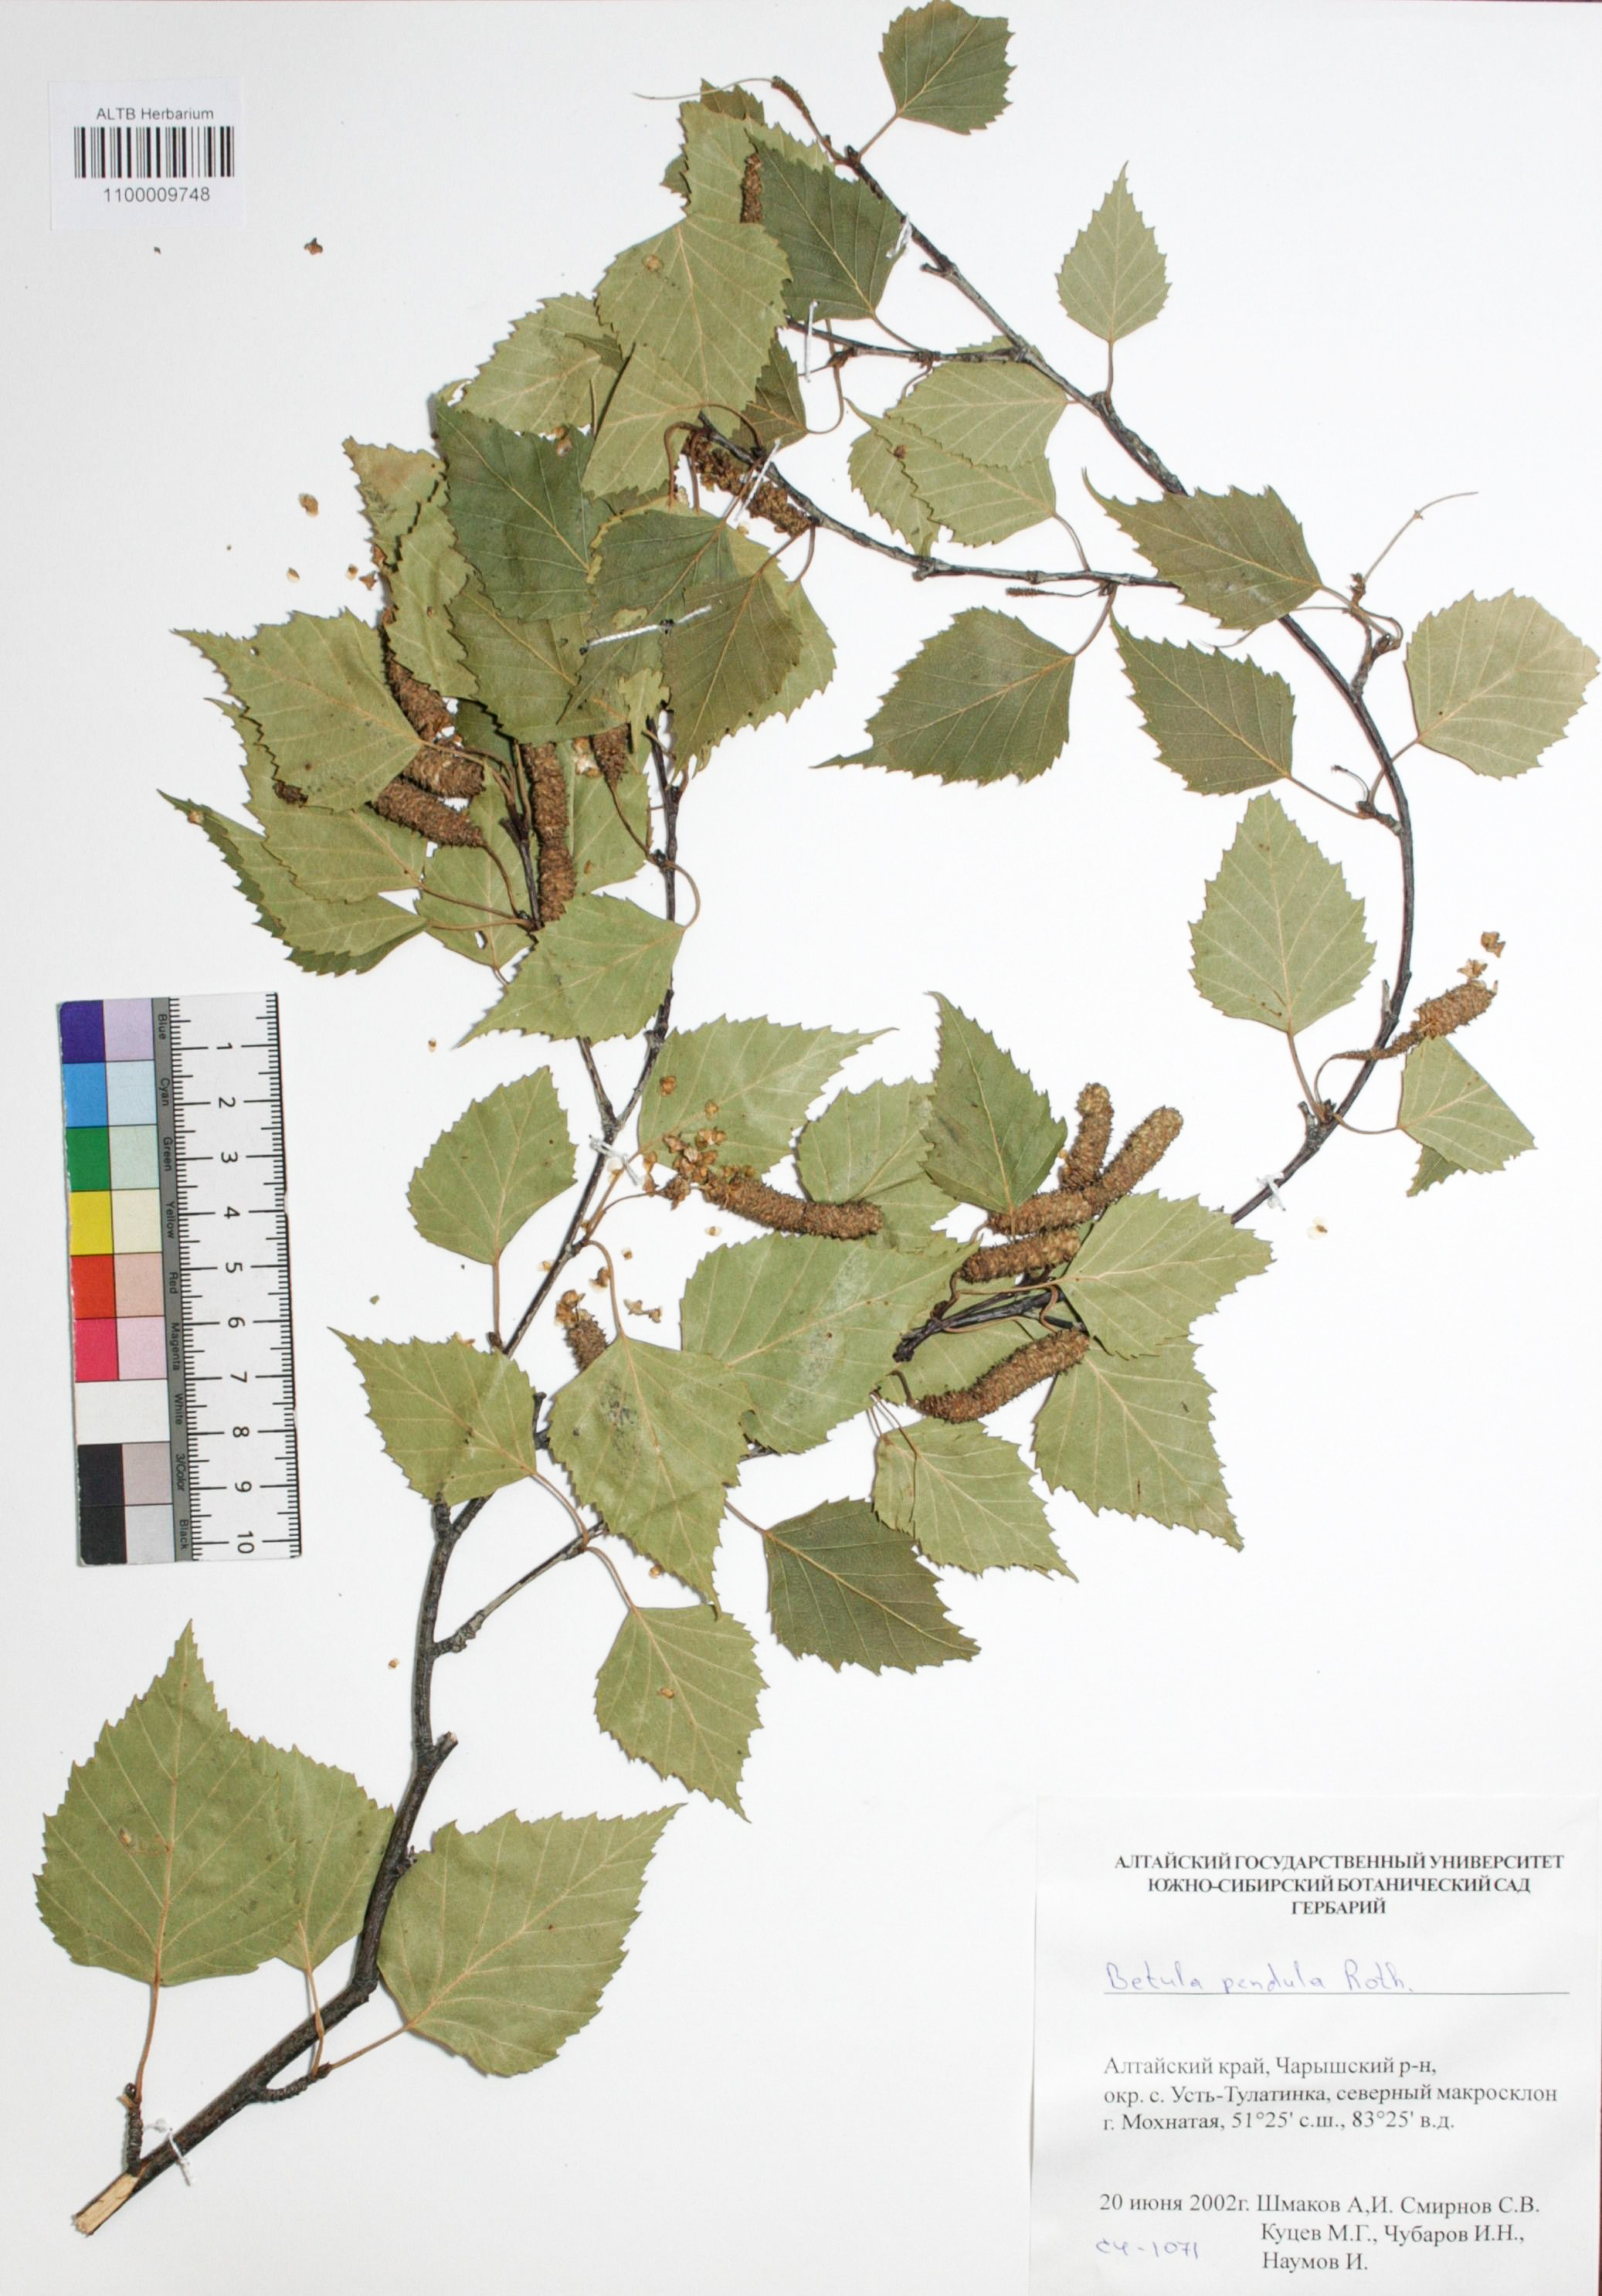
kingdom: Plantae
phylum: Tracheophyta
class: Magnoliopsida
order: Fagales
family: Betulaceae
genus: Betula
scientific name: Betula pendula
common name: Silver birch
